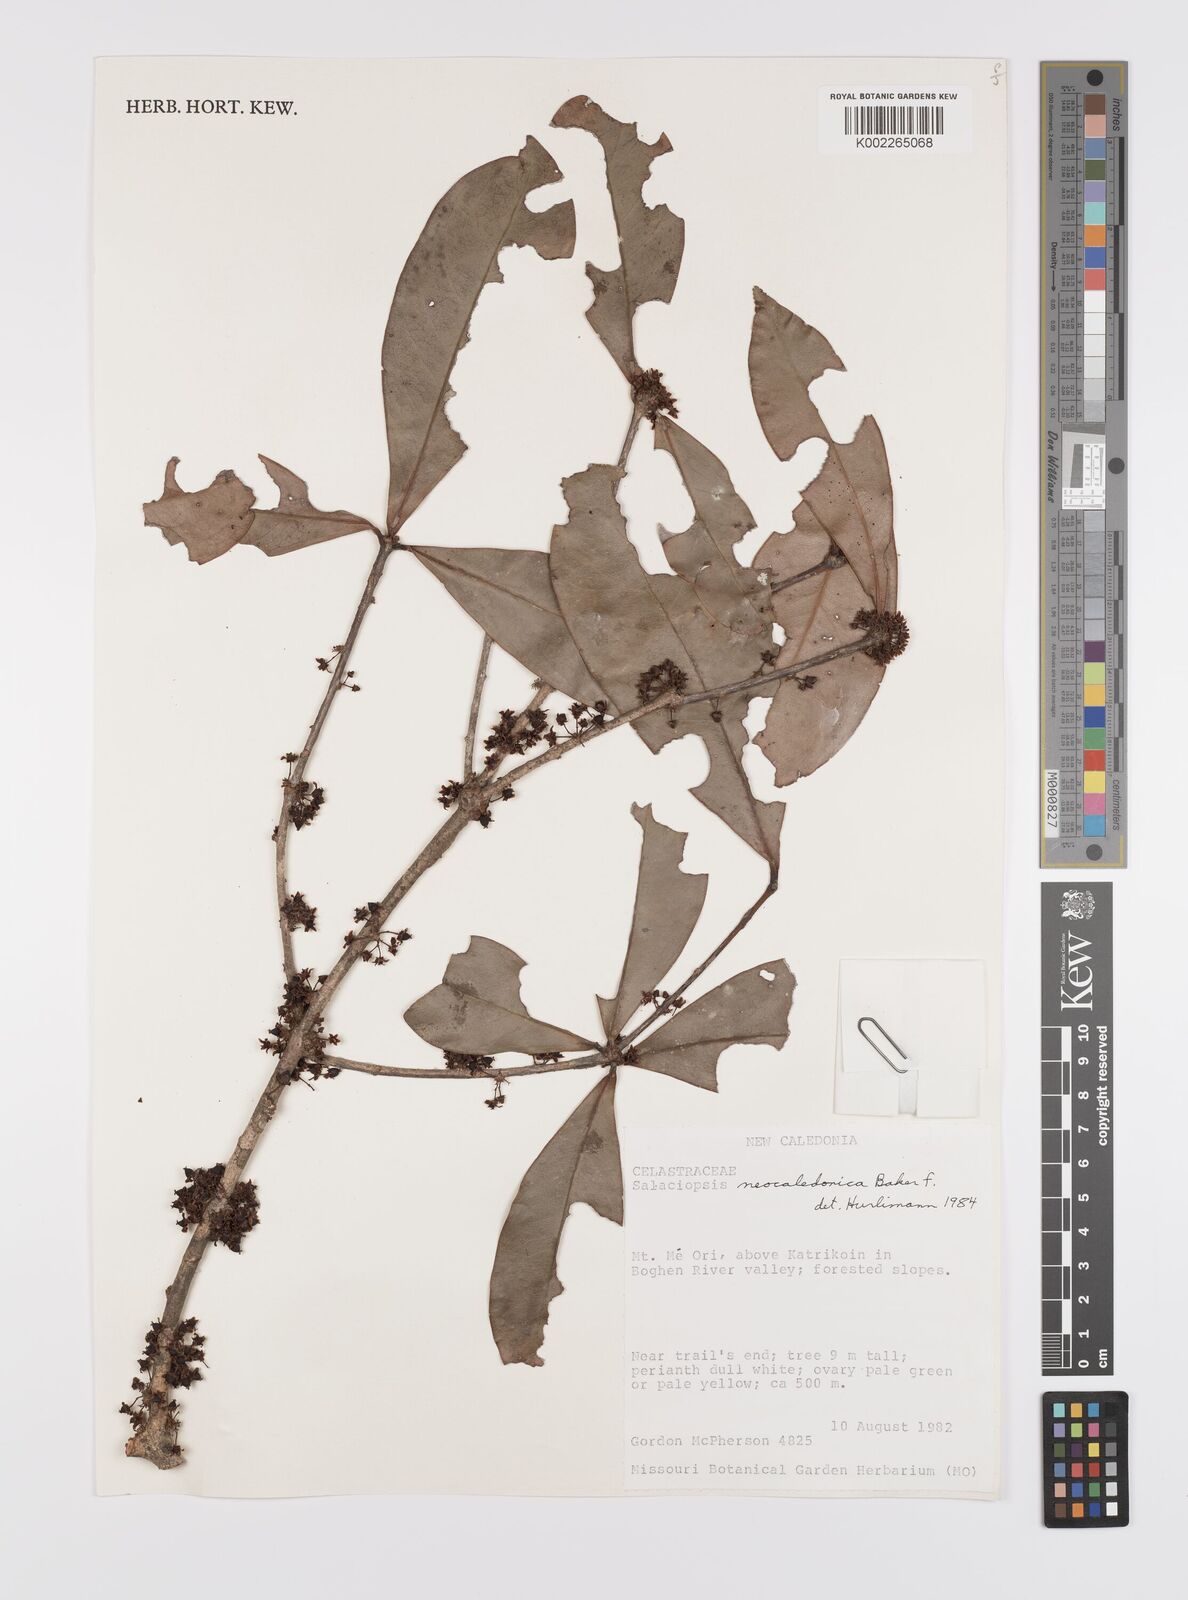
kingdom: Plantae
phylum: Tracheophyta
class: Magnoliopsida
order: Celastrales
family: Celastraceae
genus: Salaciopsis
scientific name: Salaciopsis neocaledonica
